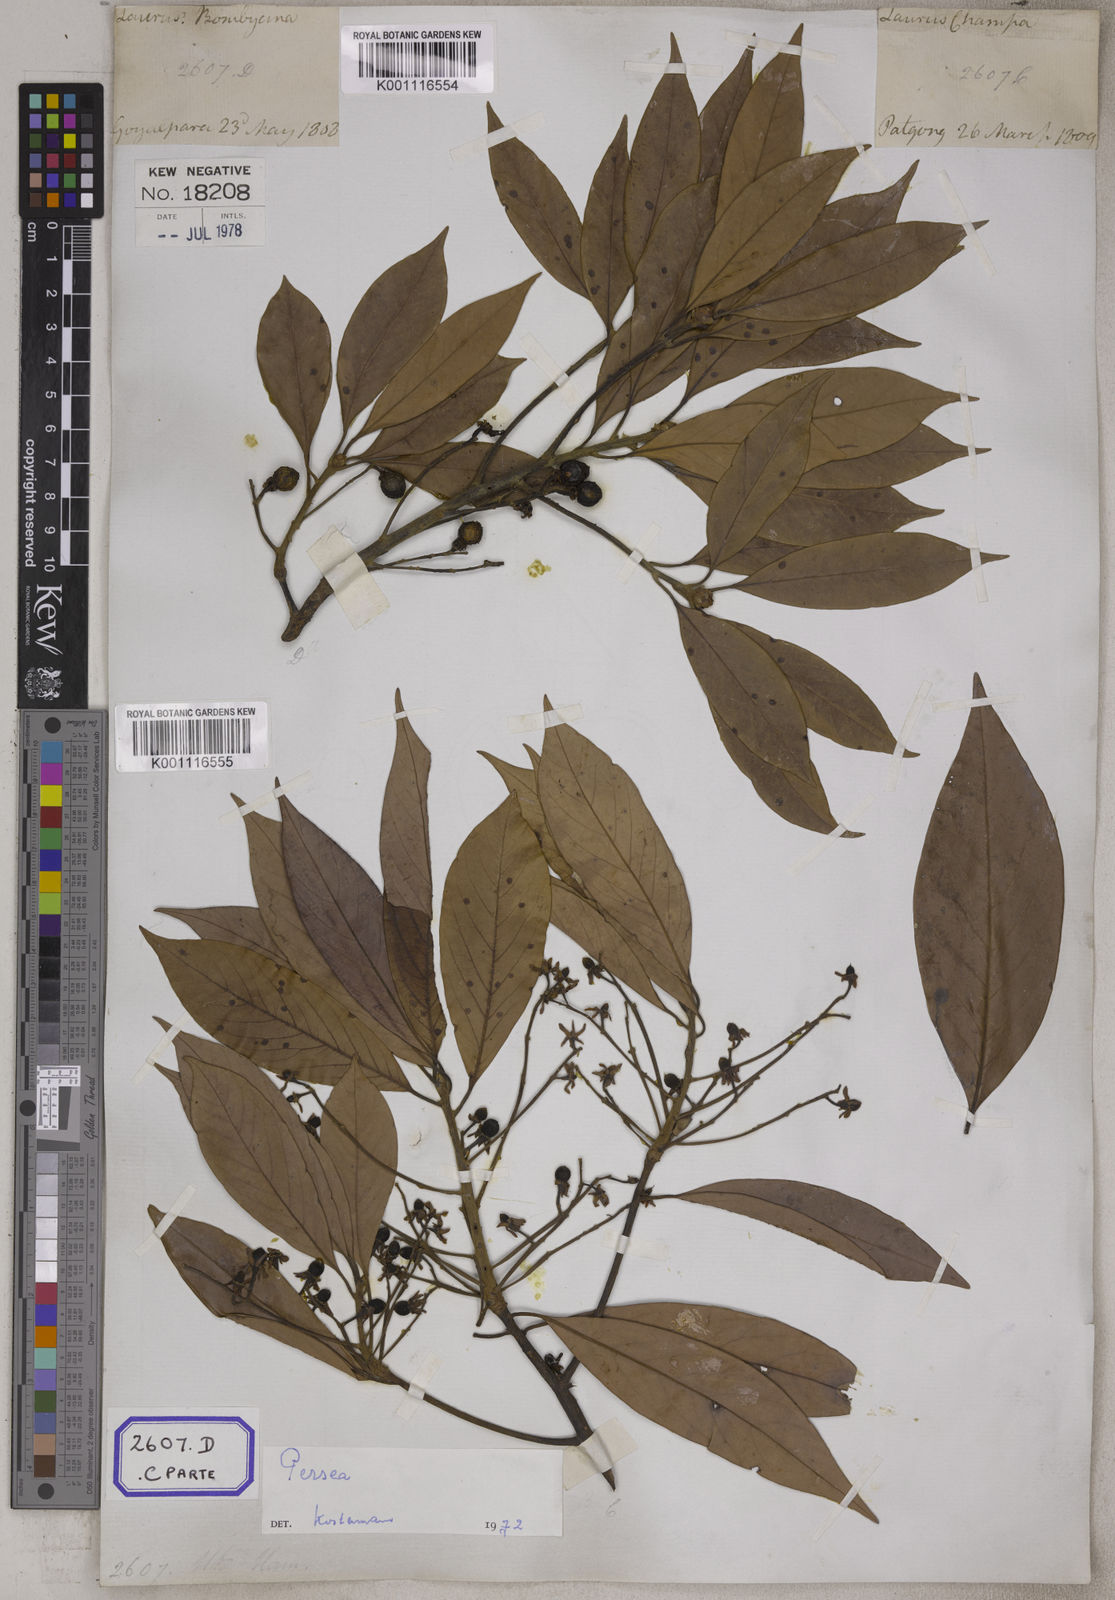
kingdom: Plantae
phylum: Tracheophyta
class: Magnoliopsida
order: Laurales
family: Lauraceae
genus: Machilus
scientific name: Machilus odoratissimus
